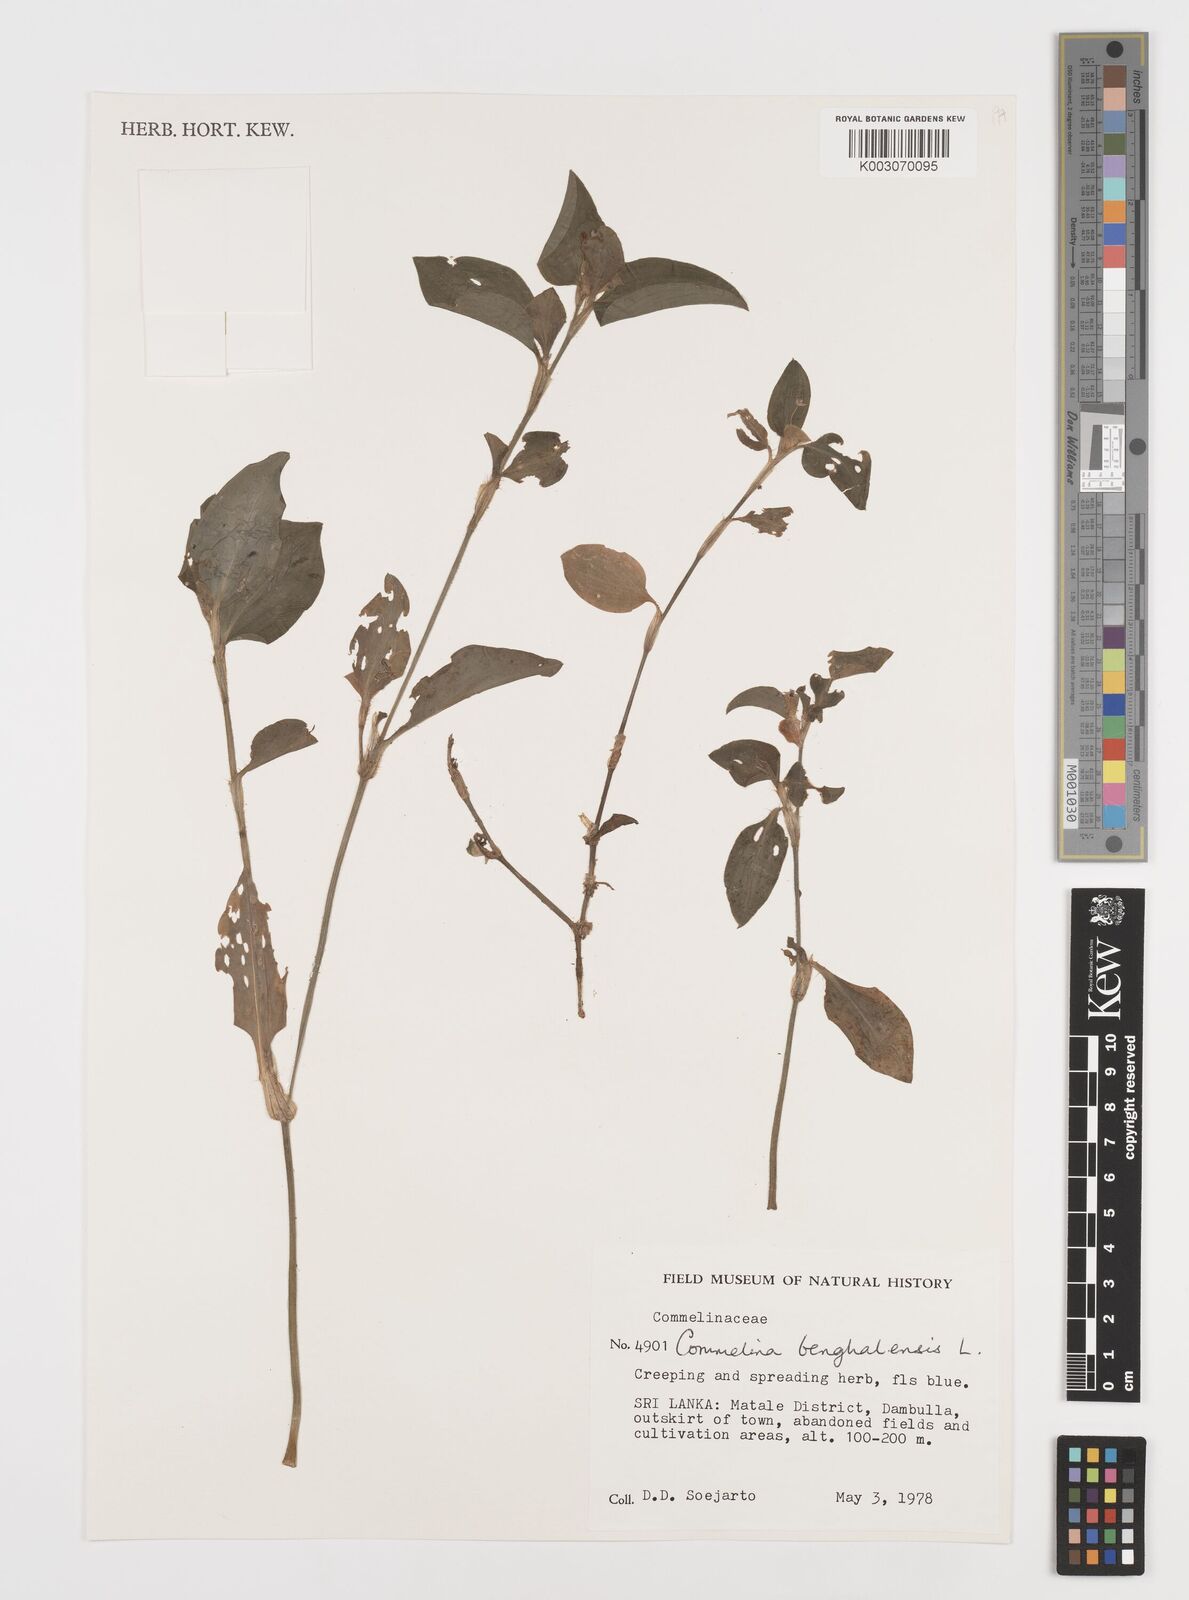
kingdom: Plantae
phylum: Tracheophyta
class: Liliopsida
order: Commelinales
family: Commelinaceae
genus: Commelina
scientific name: Commelina benghalensis
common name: Jio
